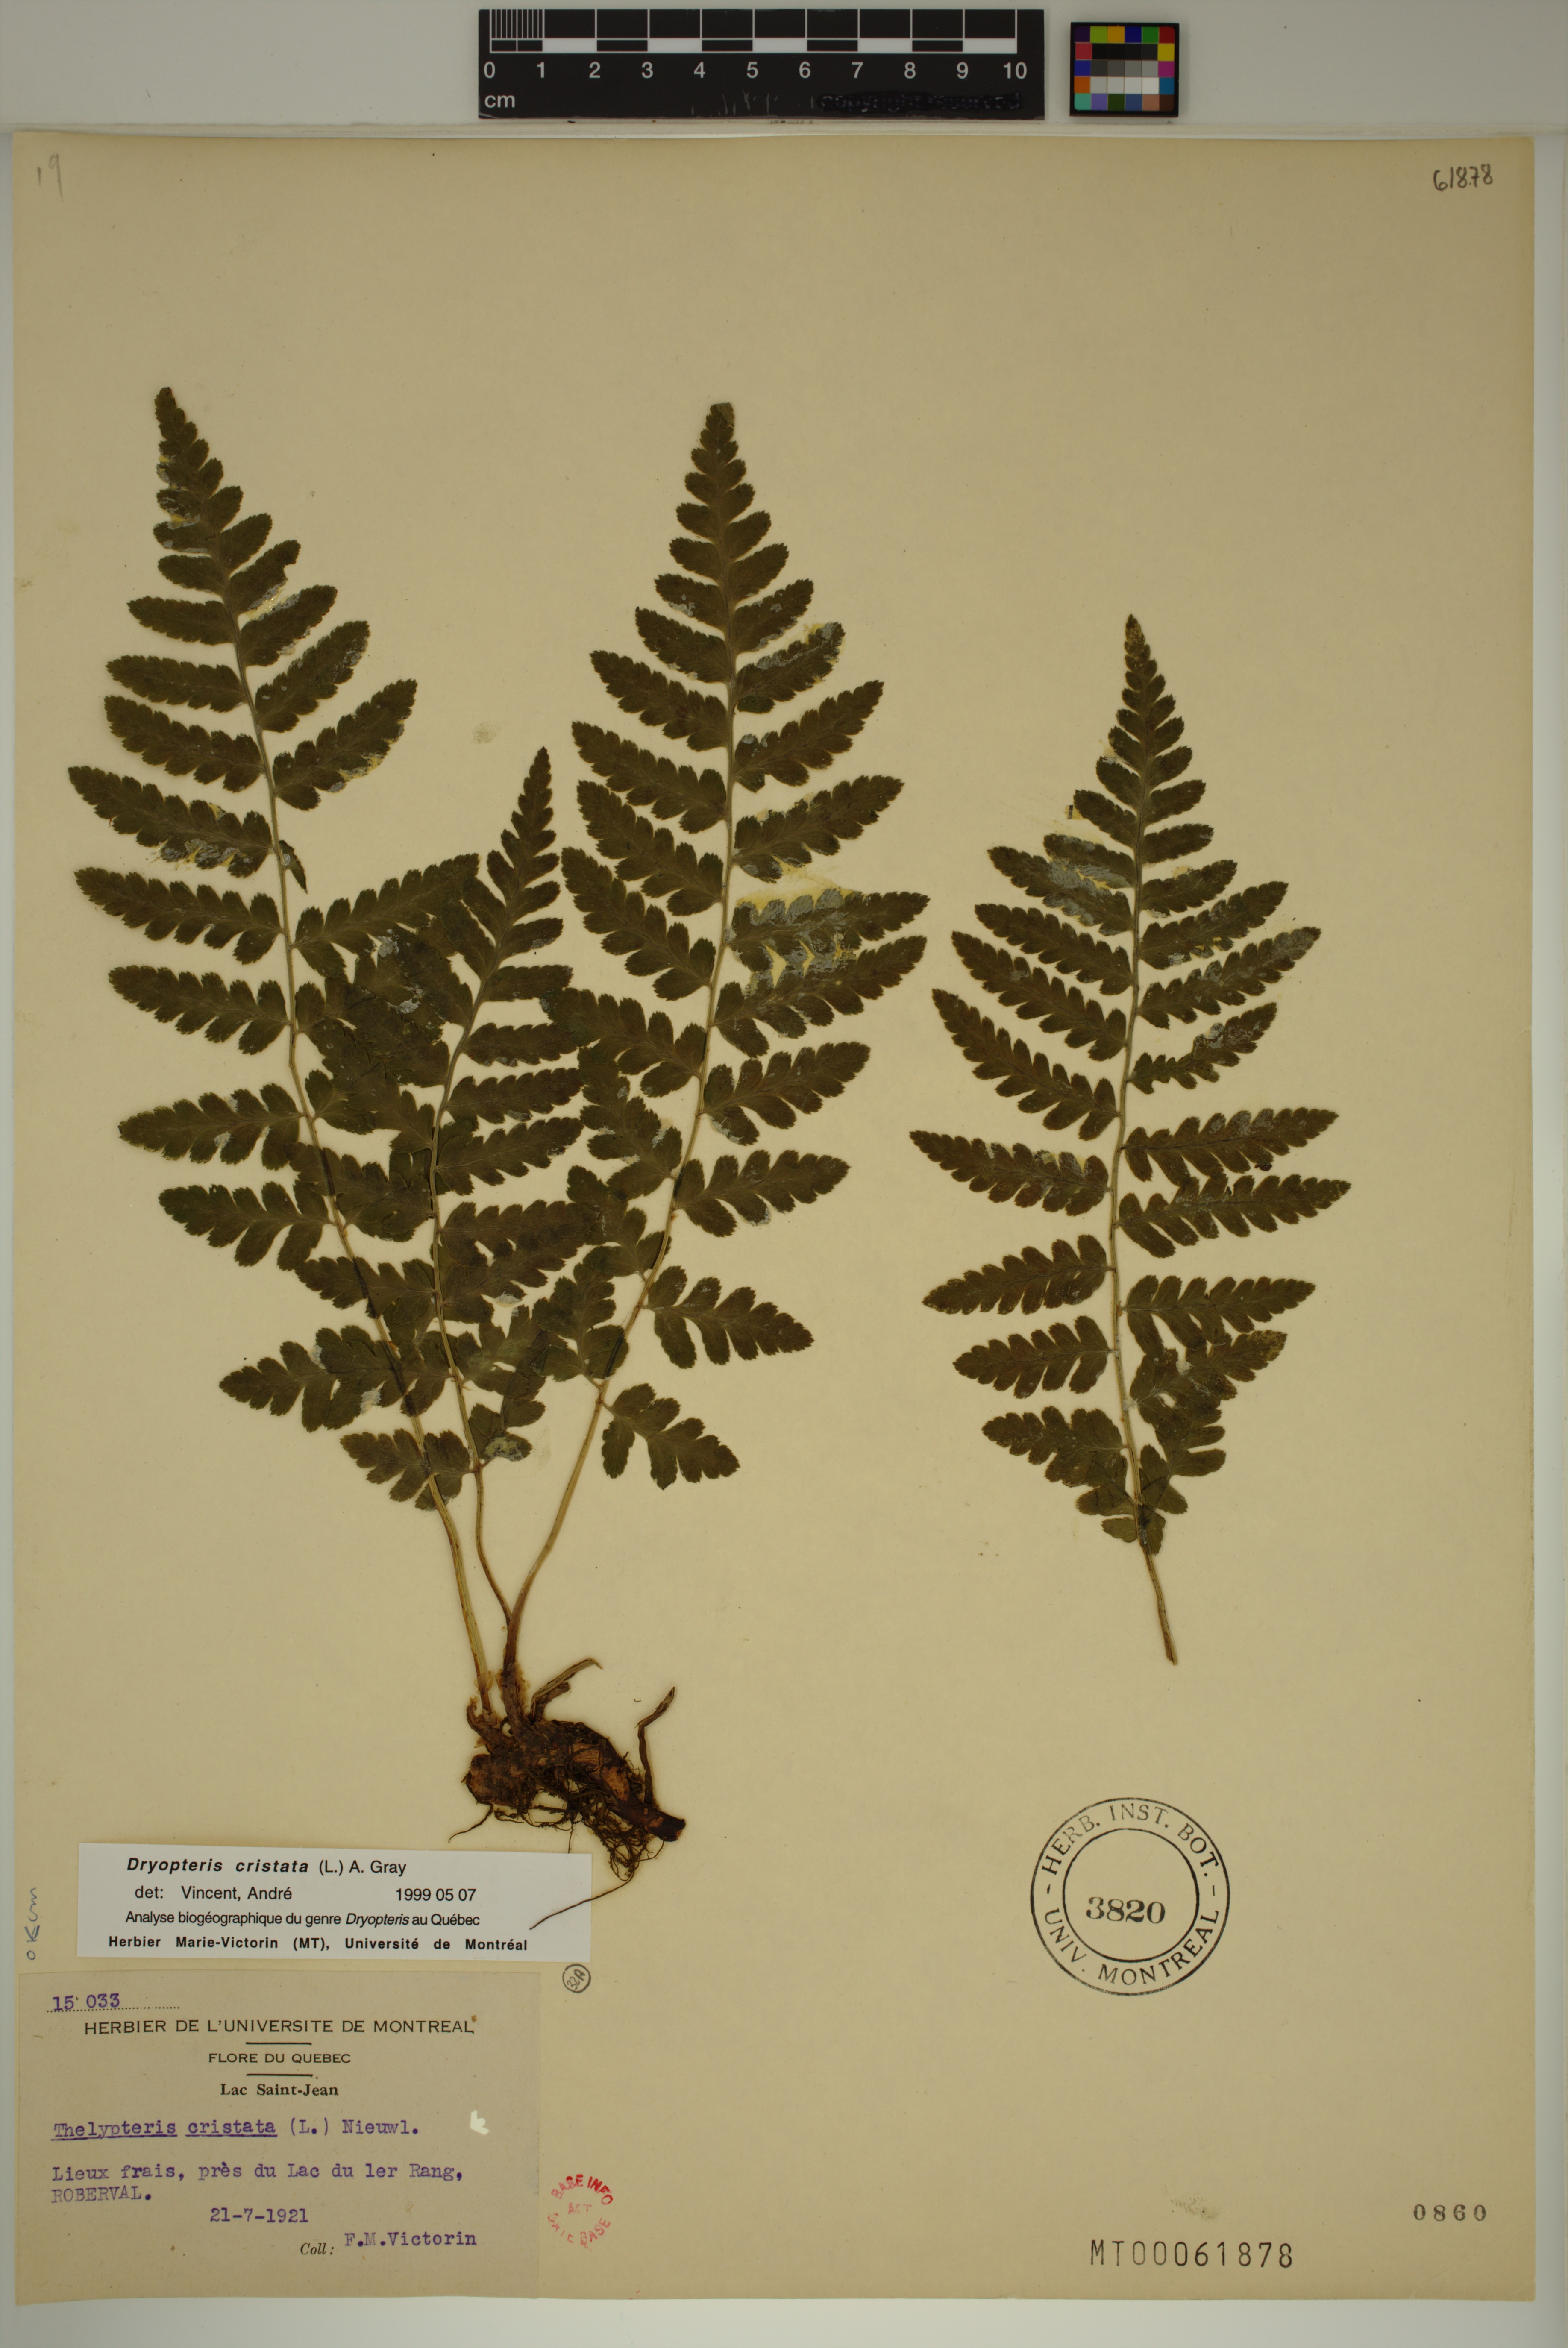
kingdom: Plantae
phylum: Tracheophyta
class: Polypodiopsida
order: Polypodiales
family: Dryopteridaceae
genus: Dryopteris
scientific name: Dryopteris cristata
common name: Crested wood fern
